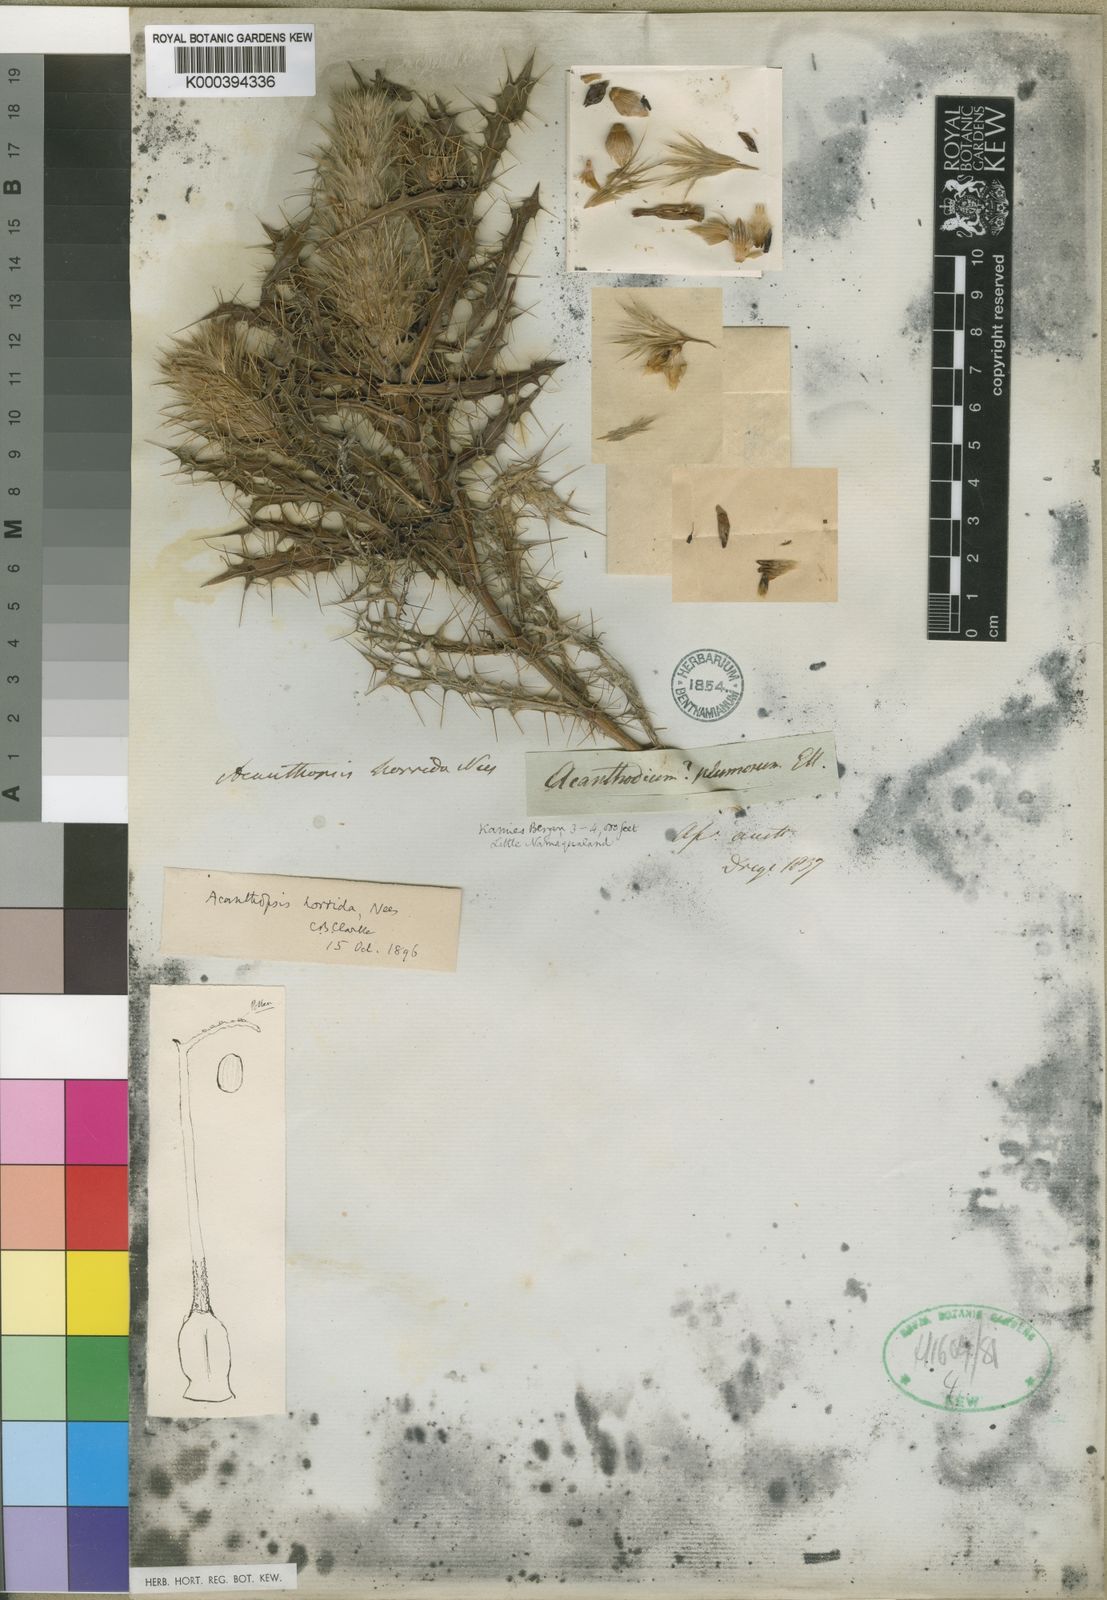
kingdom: Plantae
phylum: Tracheophyta
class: Magnoliopsida
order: Lamiales
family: Acanthaceae
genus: Acanthopsis
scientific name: Acanthopsis horrida
